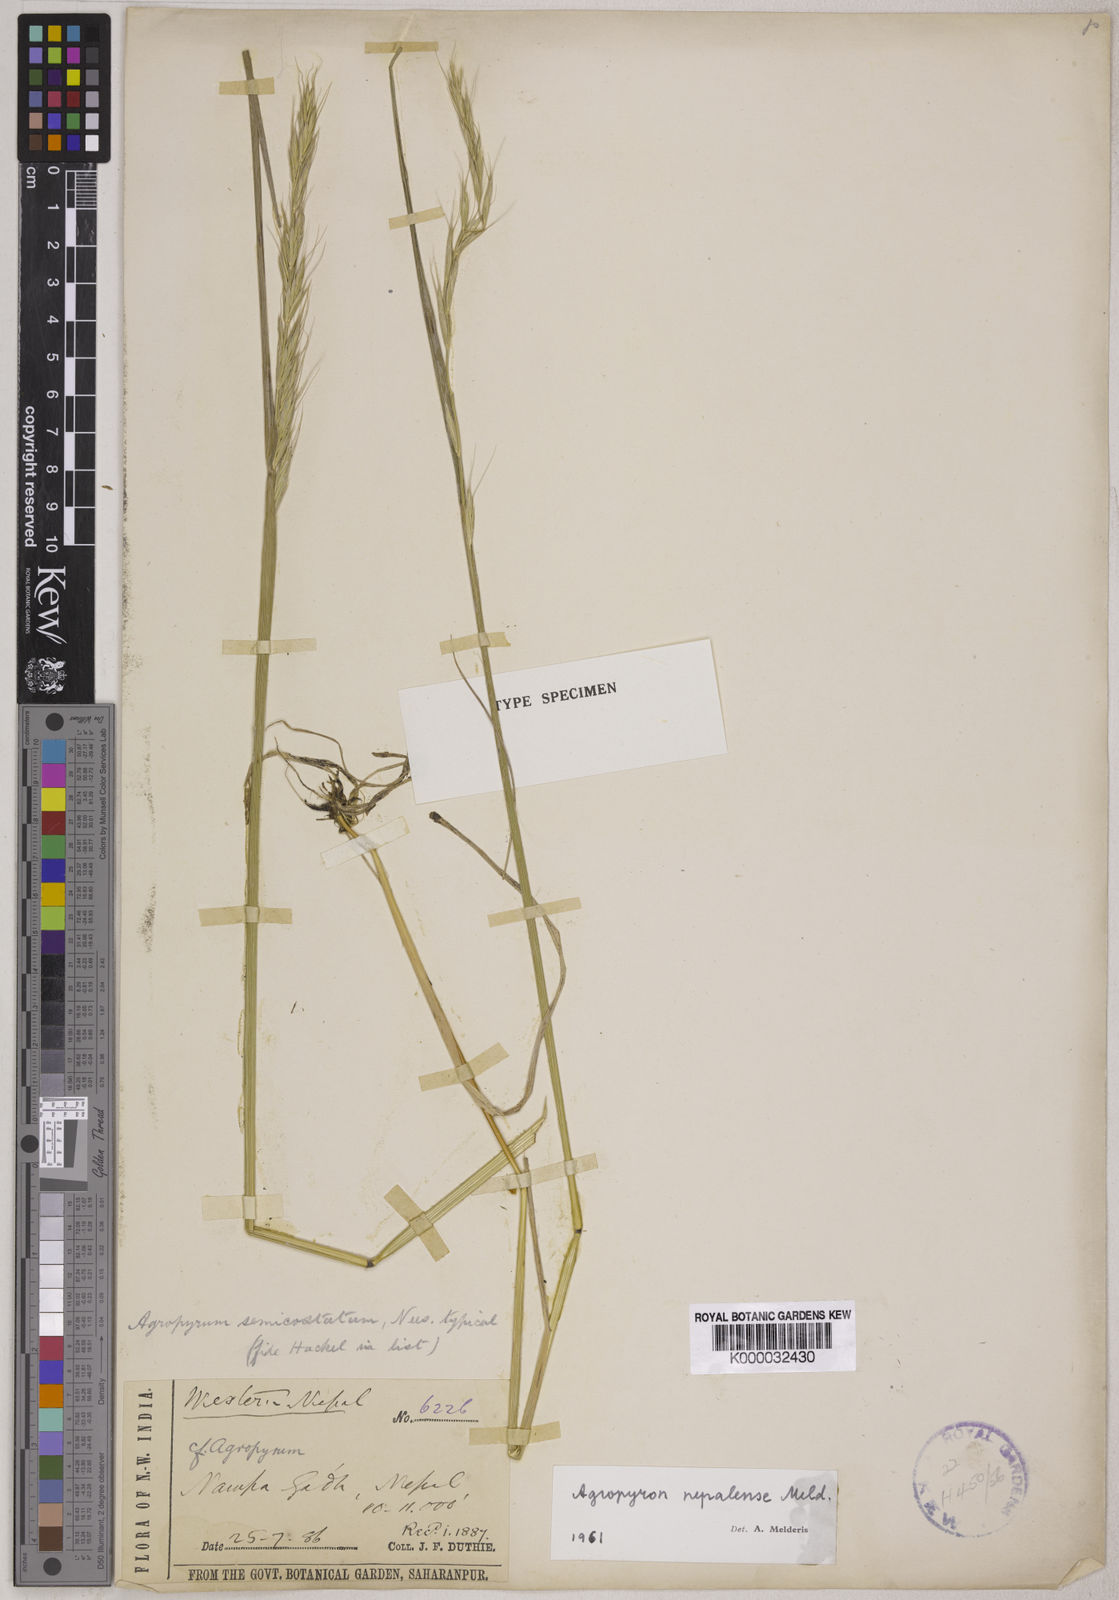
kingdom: Plantae
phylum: Tracheophyta
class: Liliopsida
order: Poales
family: Poaceae
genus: Elymus
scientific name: Elymus nepalensis
